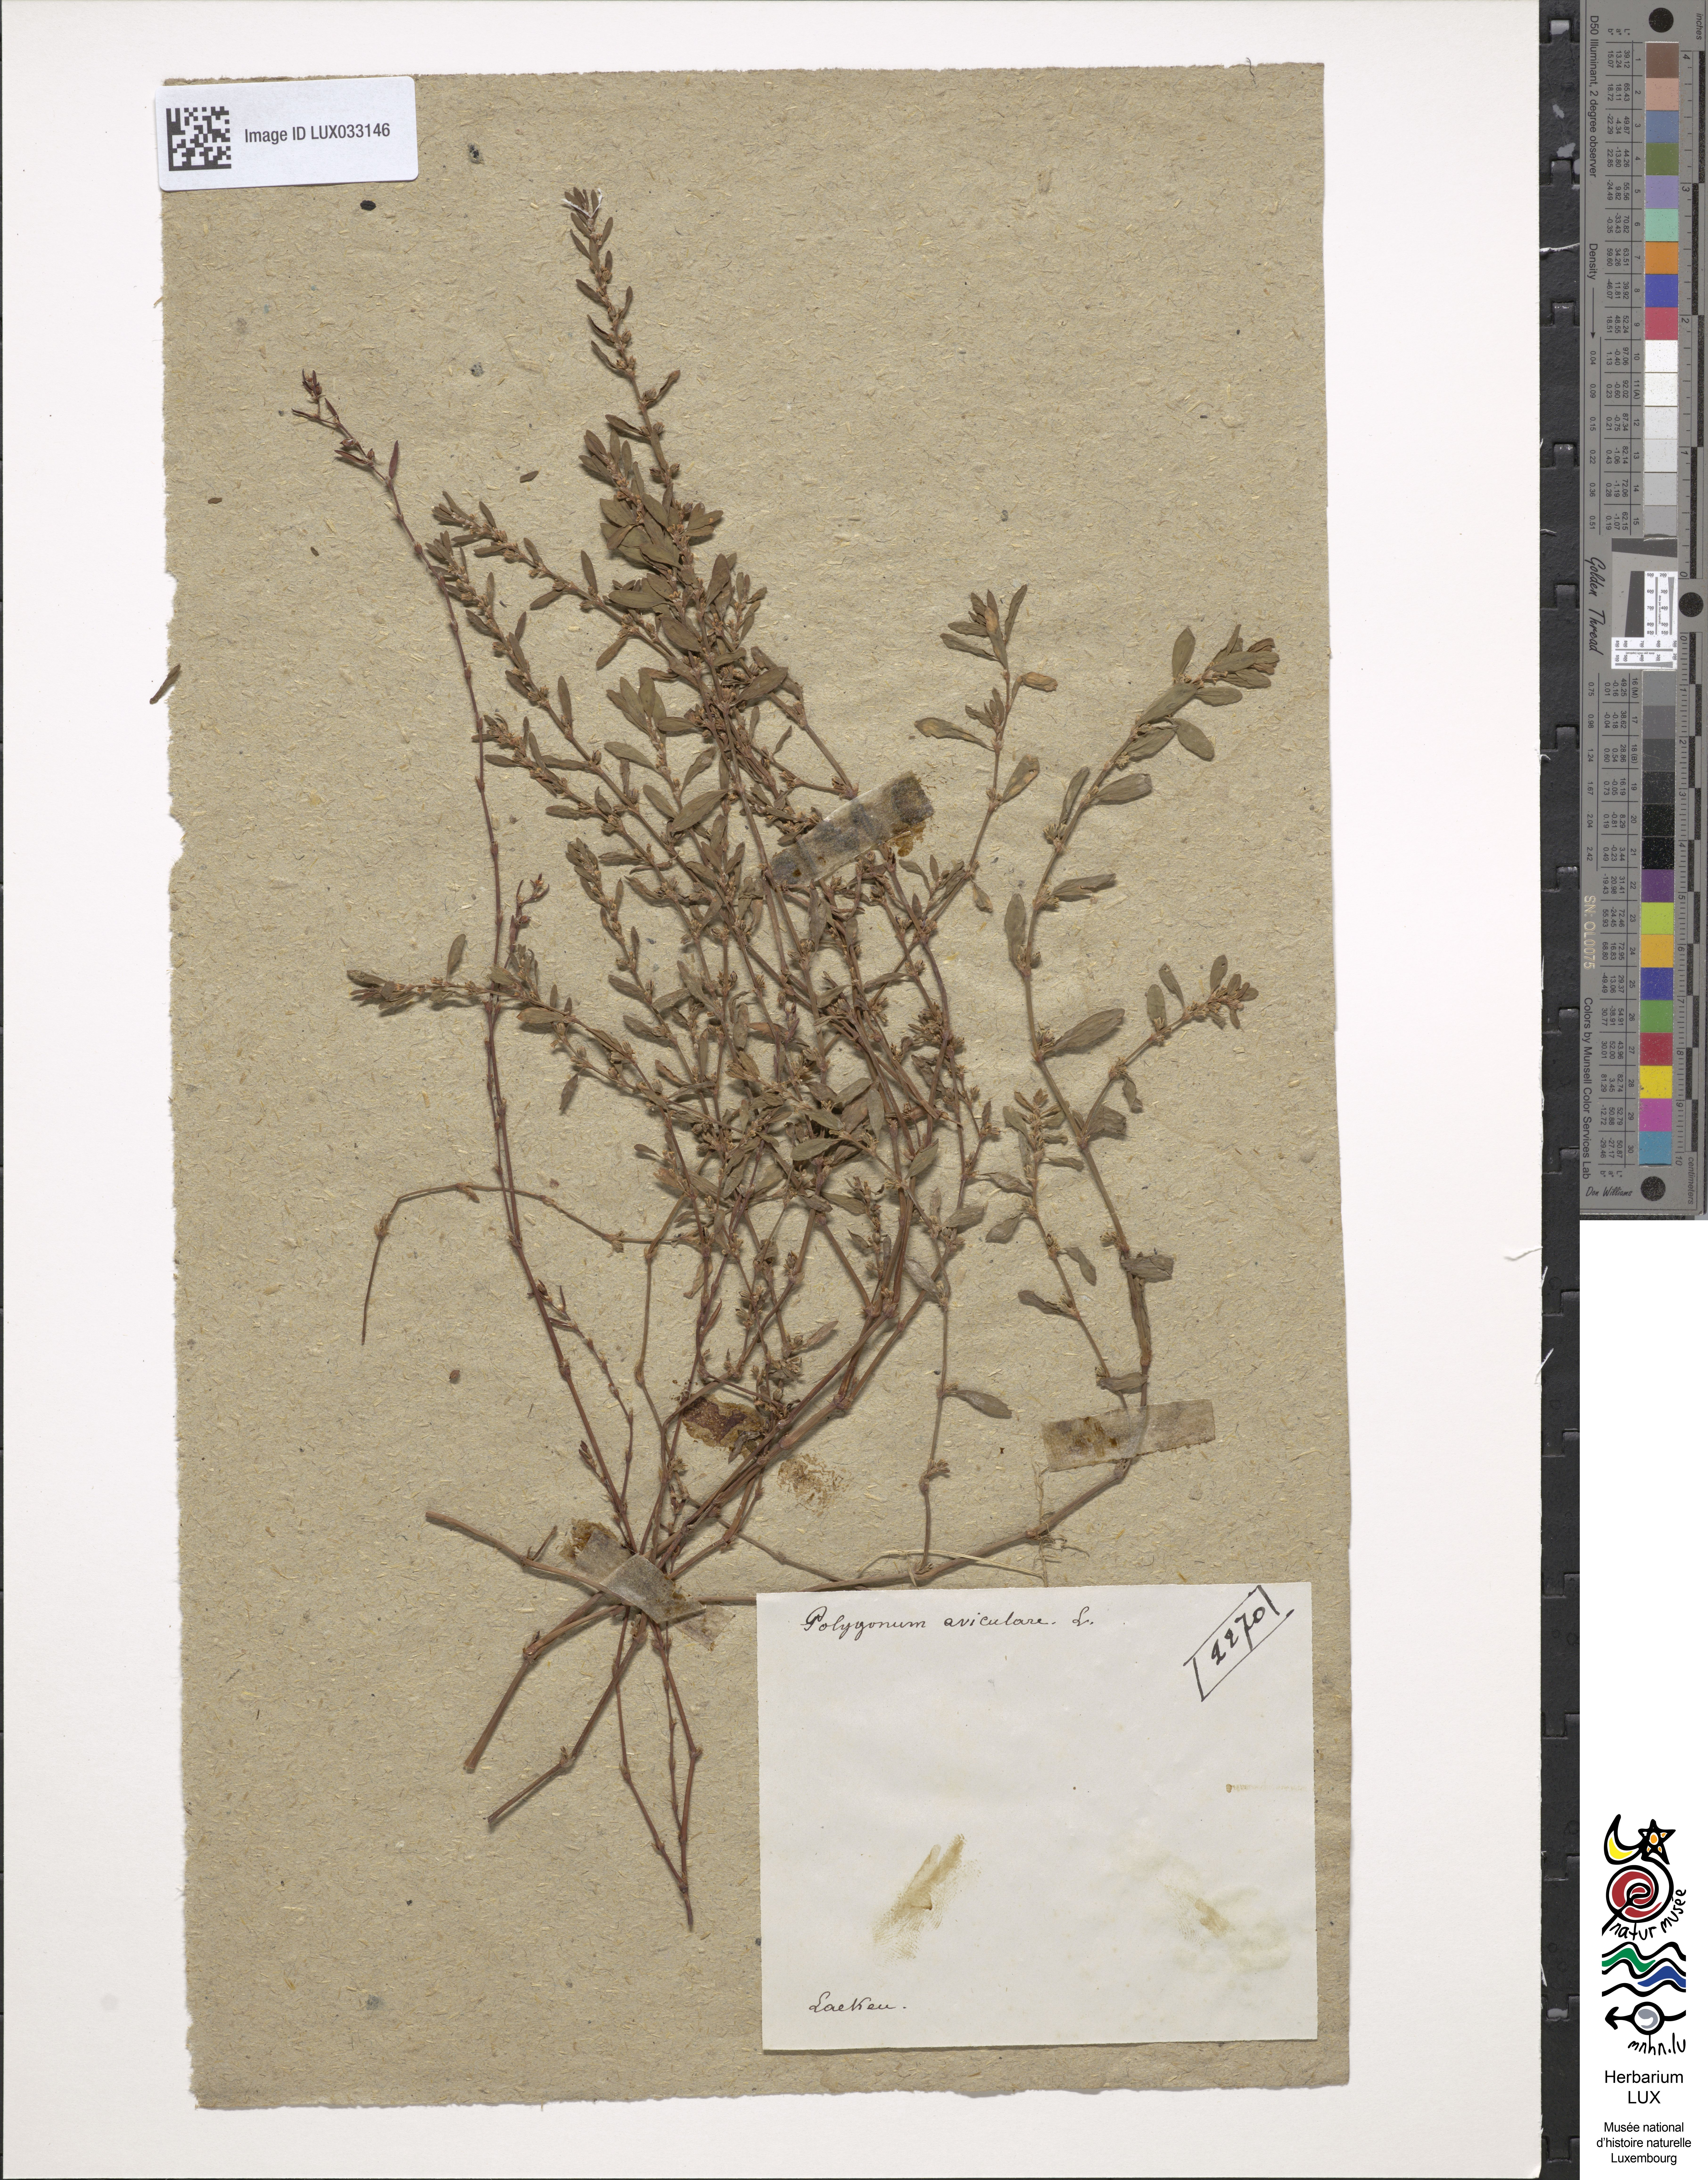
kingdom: Plantae
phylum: Tracheophyta
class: Magnoliopsida
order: Caryophyllales
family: Polygonaceae
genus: Polygonum
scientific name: Polygonum aviculare
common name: Prostrate knotweed
